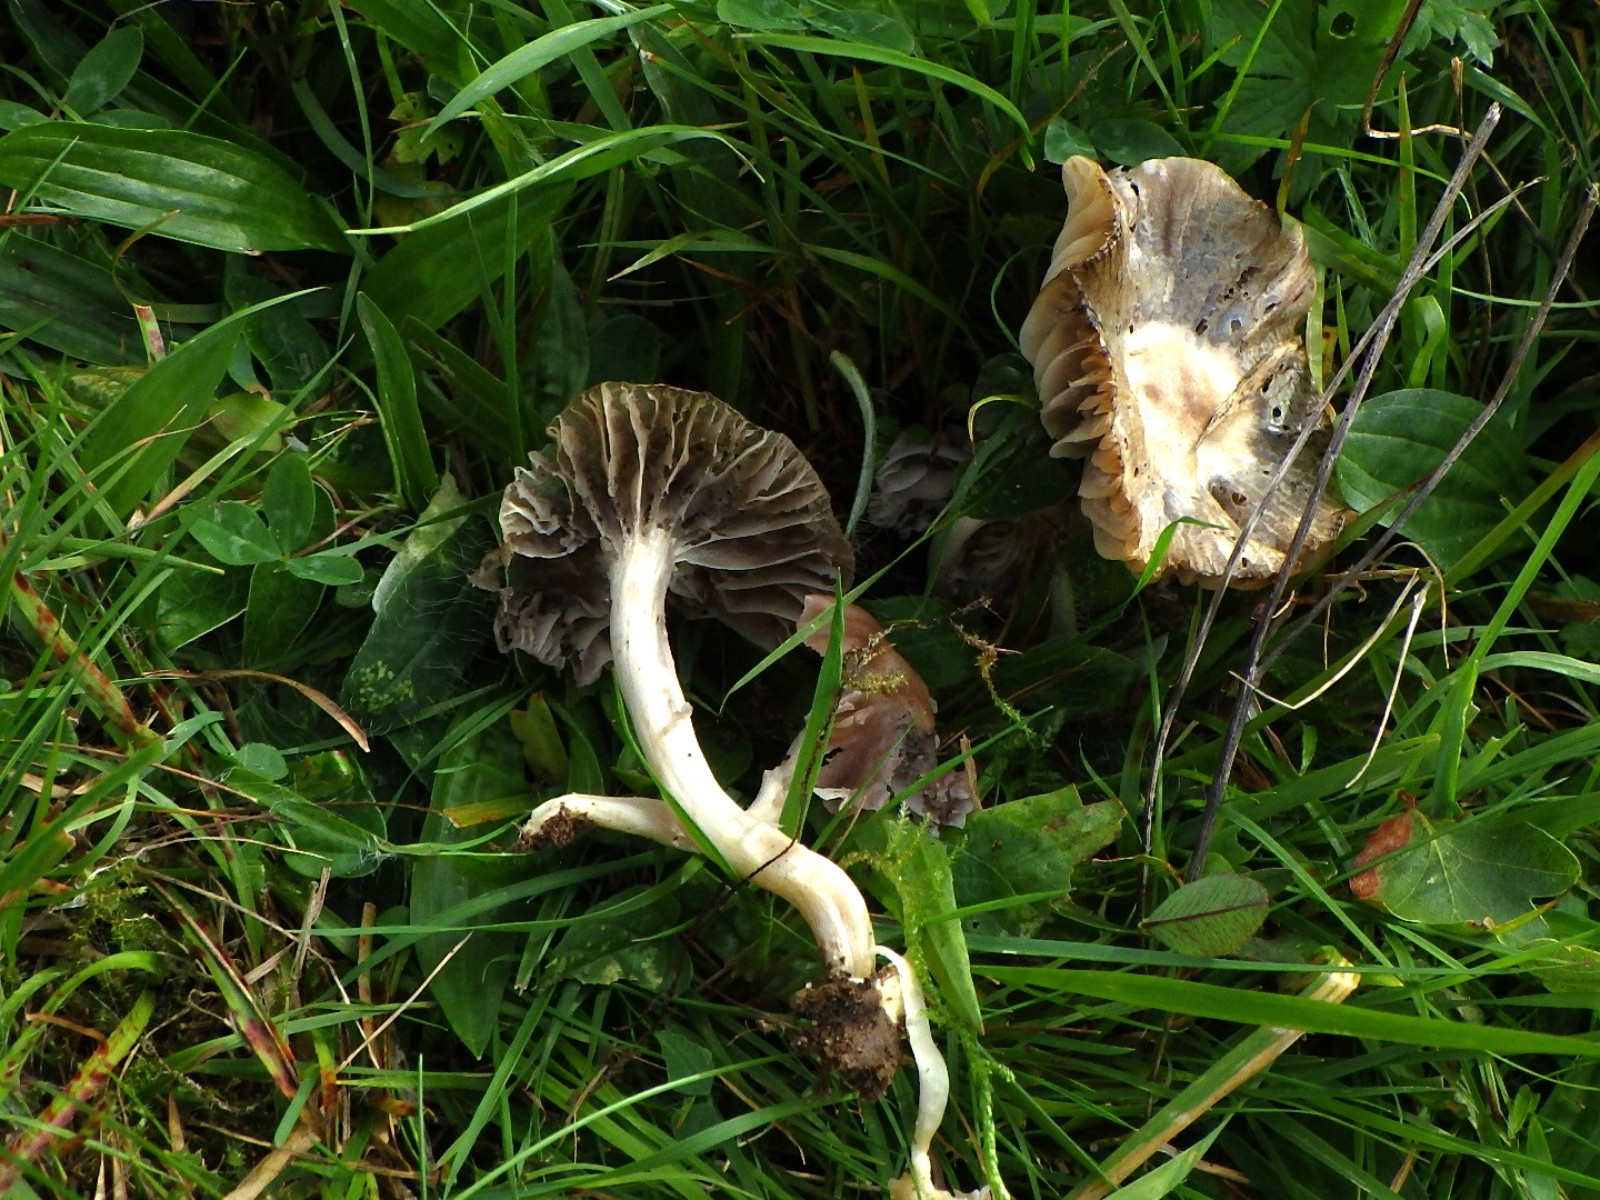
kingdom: Fungi
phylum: Basidiomycota
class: Agaricomycetes
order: Agaricales
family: Hygrophoraceae
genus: Cuphophyllus
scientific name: Cuphophyllus flavipes
